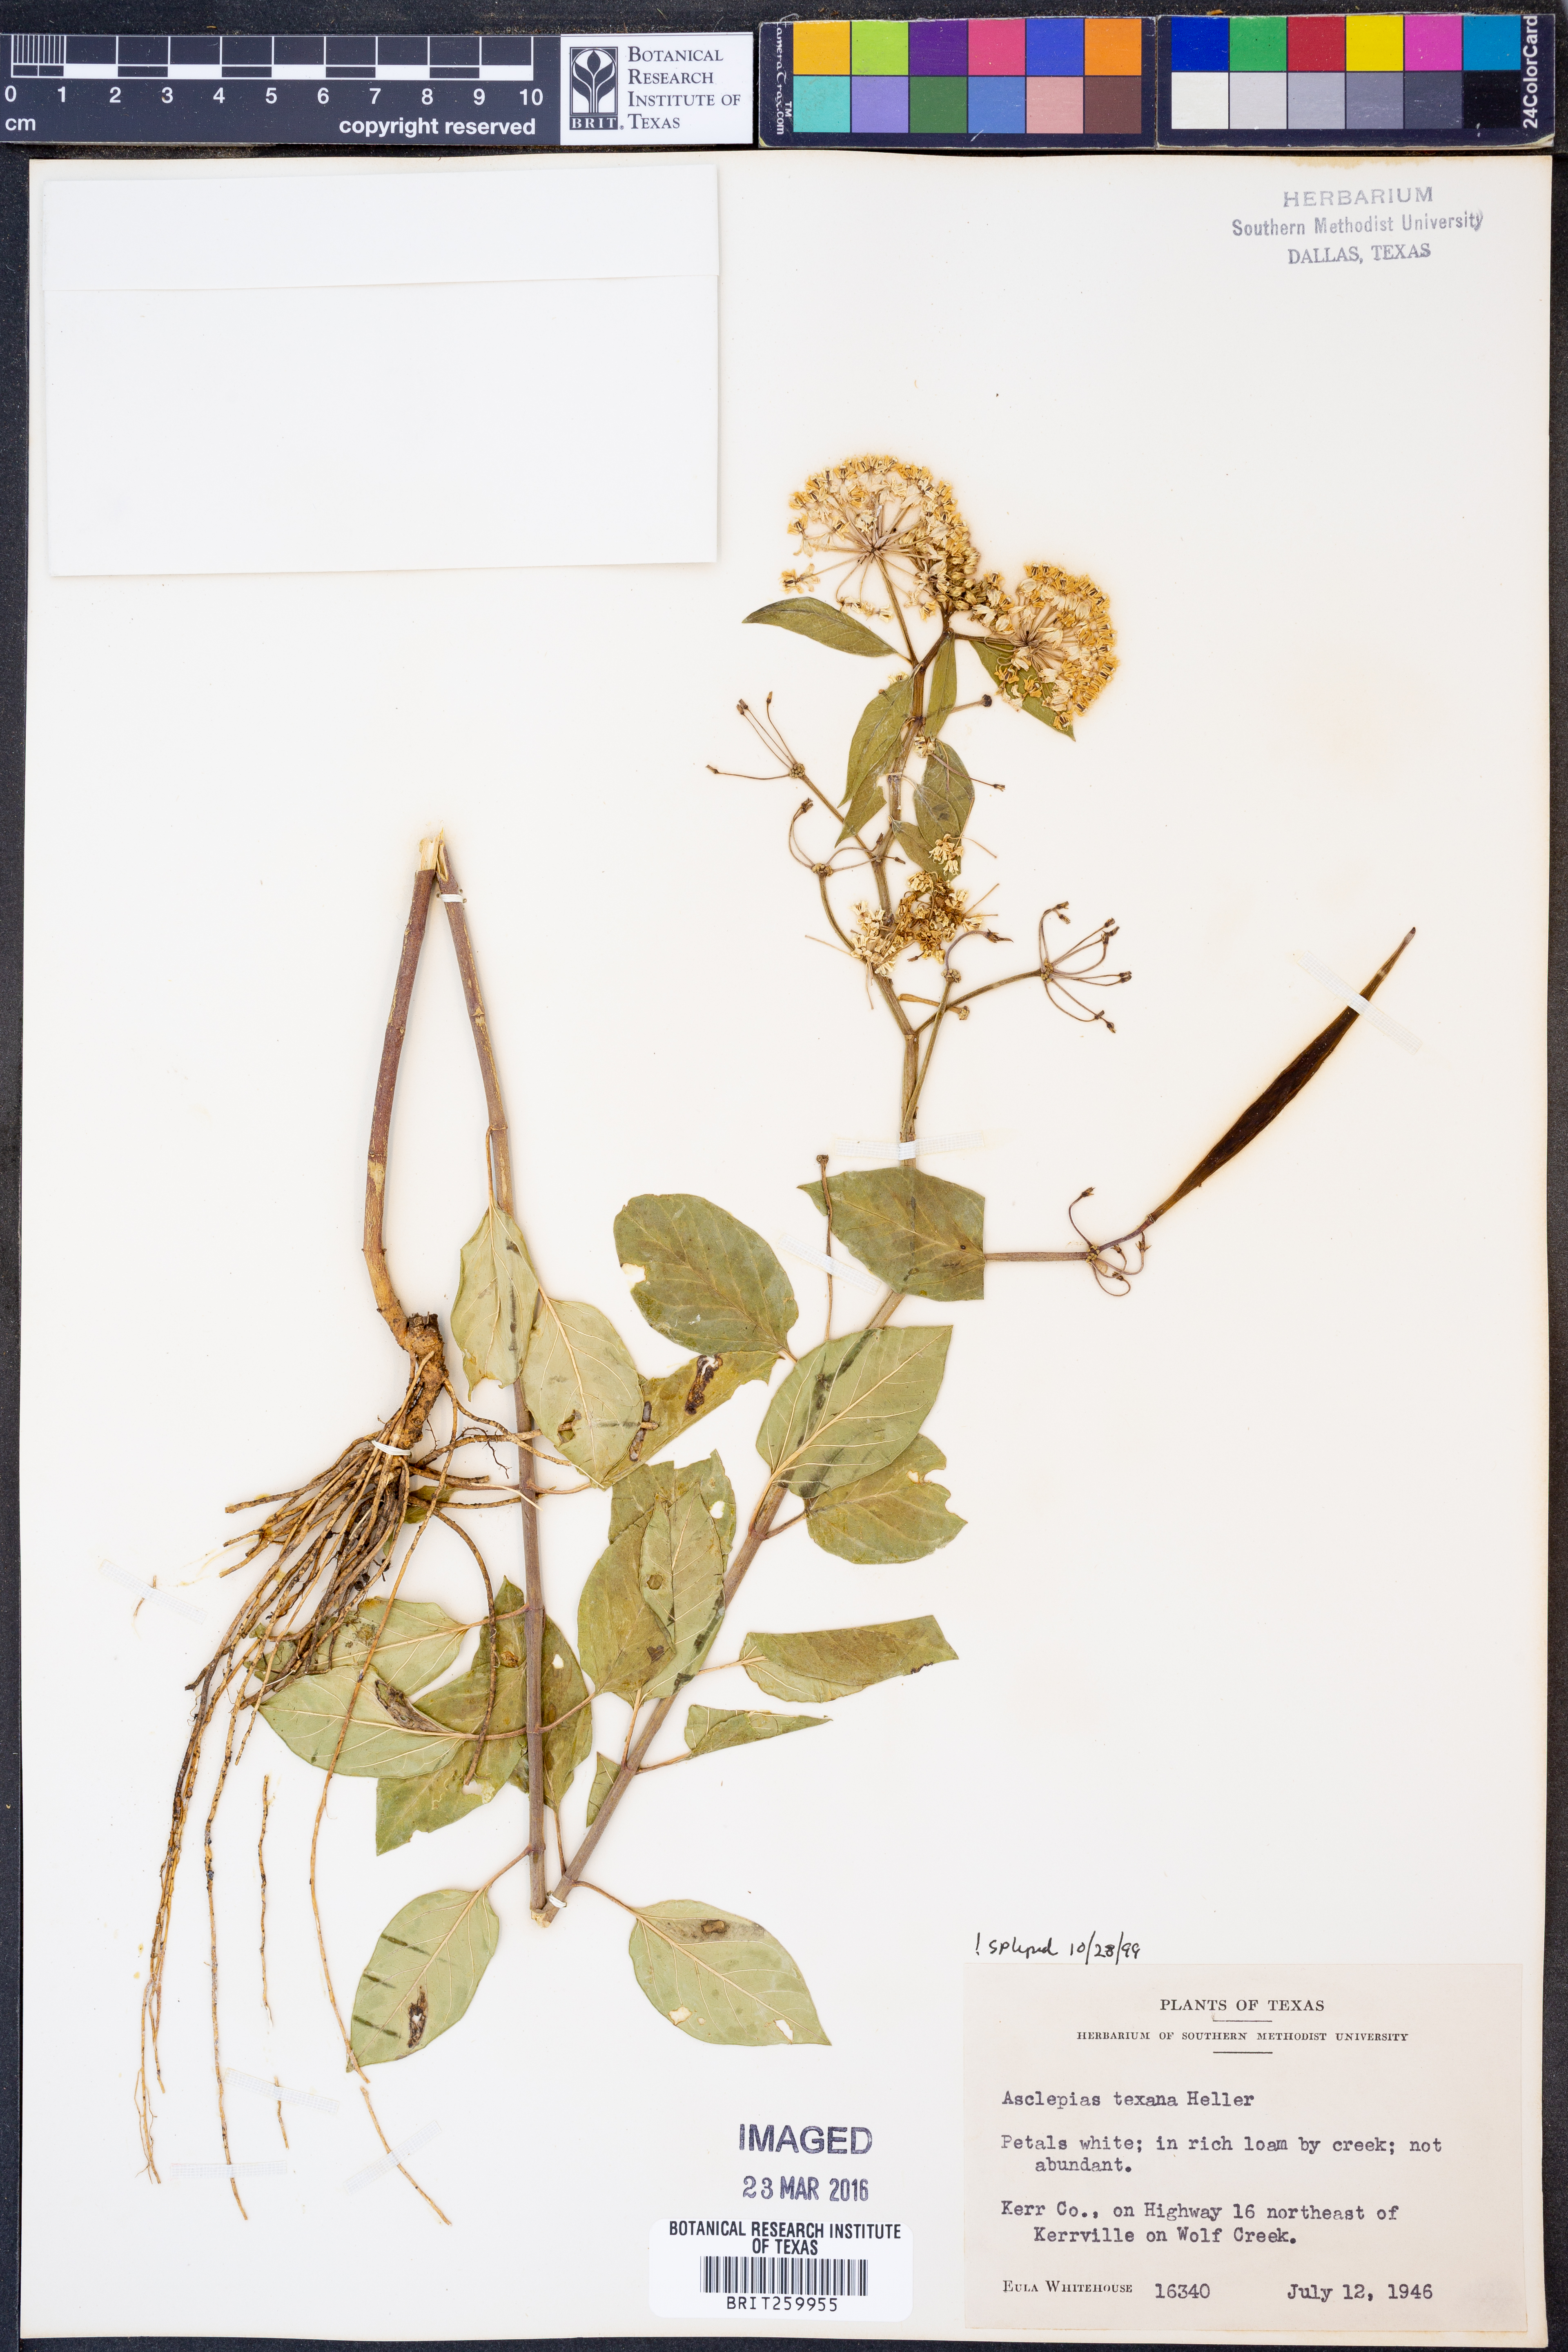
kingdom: Plantae
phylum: Tracheophyta
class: Magnoliopsida
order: Gentianales
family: Apocynaceae
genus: Asclepias
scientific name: Asclepias texana
